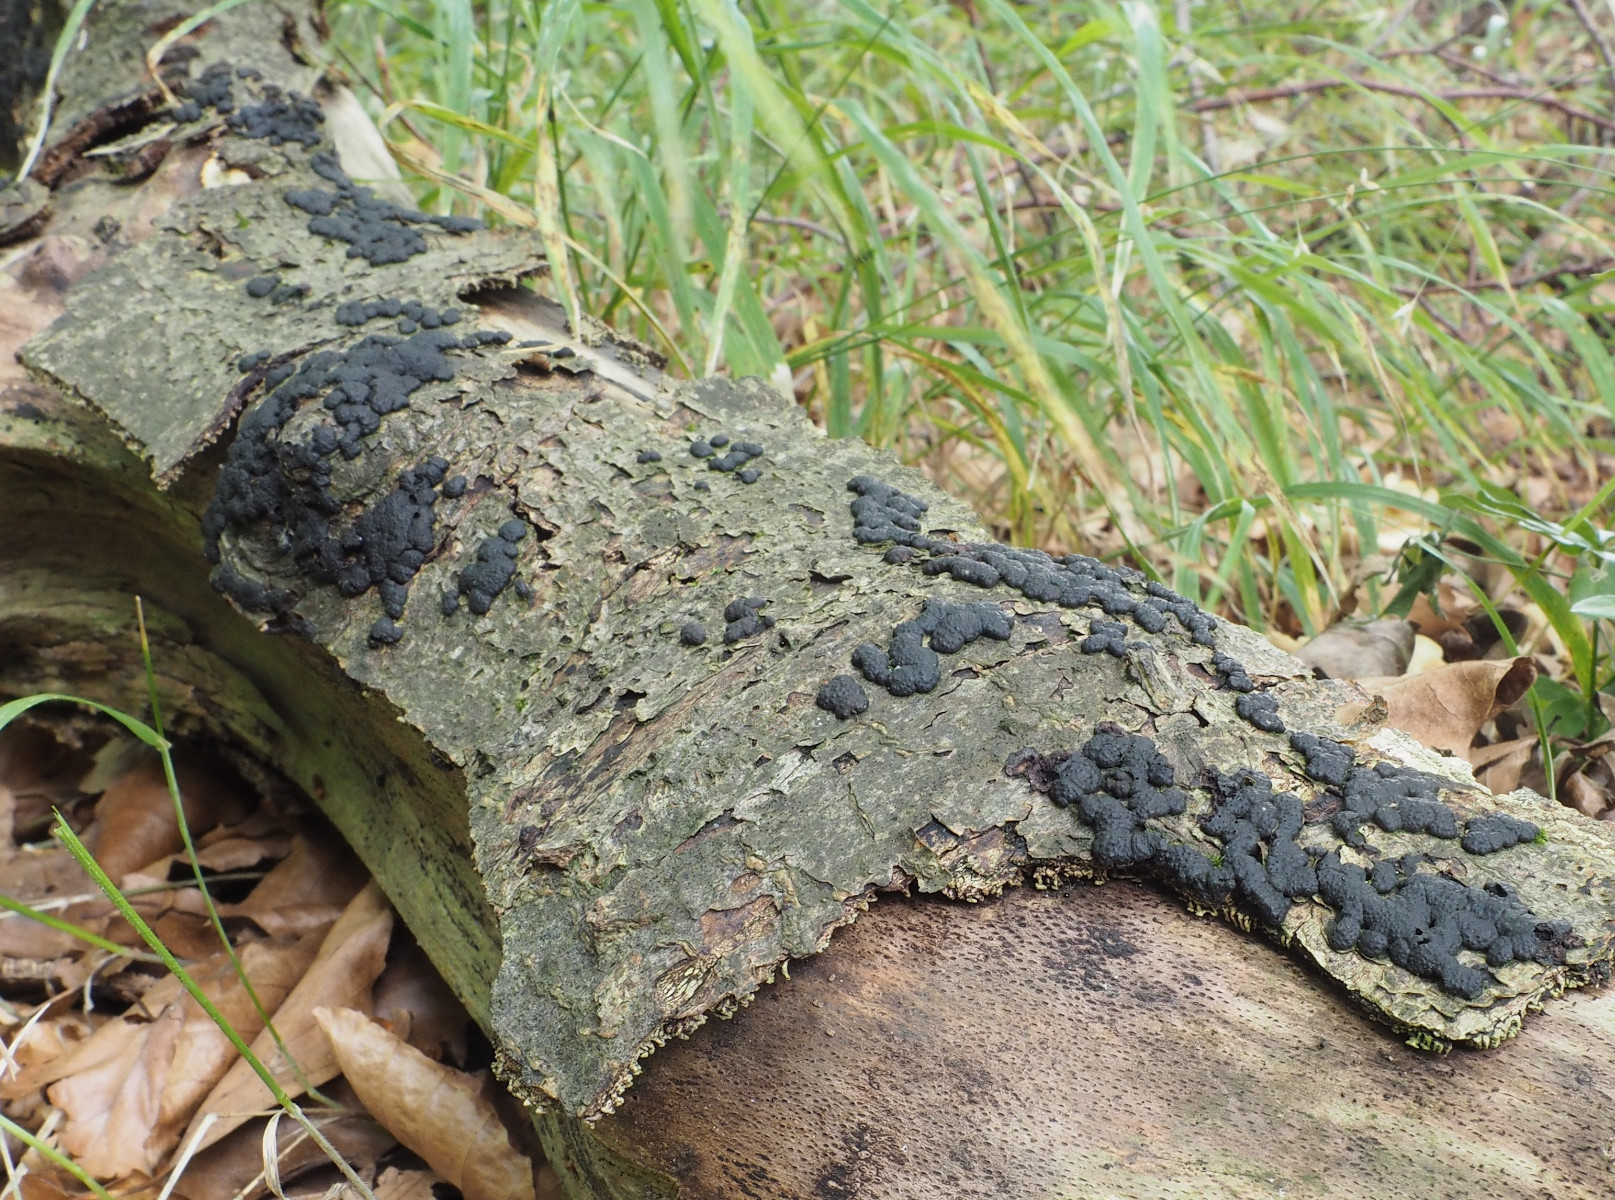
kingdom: Fungi
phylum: Ascomycota
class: Sordariomycetes
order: Xylariales
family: Hypoxylaceae
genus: Jackrogersella
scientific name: Jackrogersella cohaerens
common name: sammenflydende kulbær
